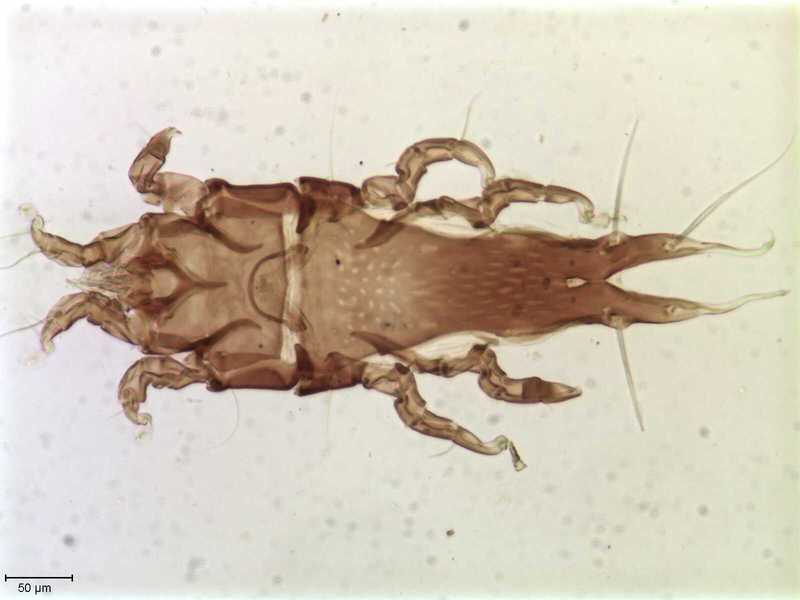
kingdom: Animalia
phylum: Arthropoda
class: Arachnida
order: Sarcoptiformes
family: Trouessartiidae
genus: Bicentralges
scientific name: Bicentralges
